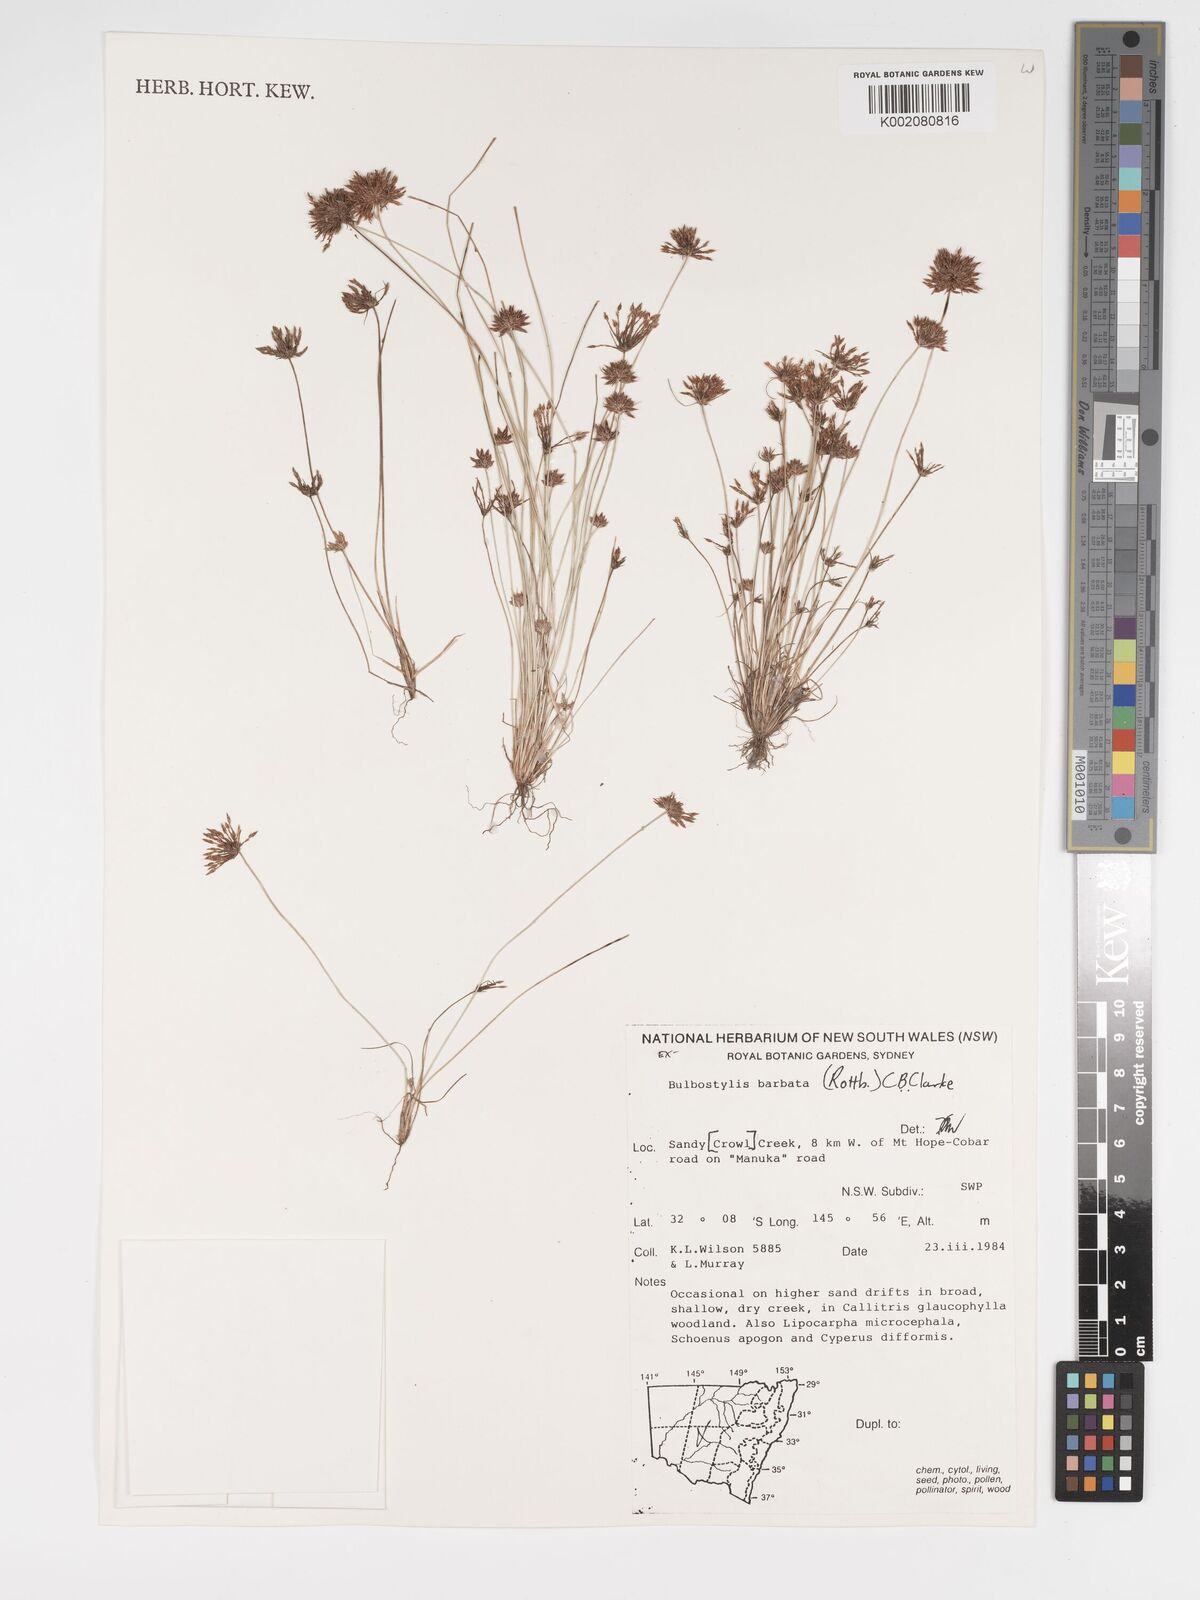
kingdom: Plantae
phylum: Tracheophyta
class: Liliopsida
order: Poales
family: Cyperaceae
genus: Bulbostylis
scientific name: Bulbostylis barbata
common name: Watergrass
